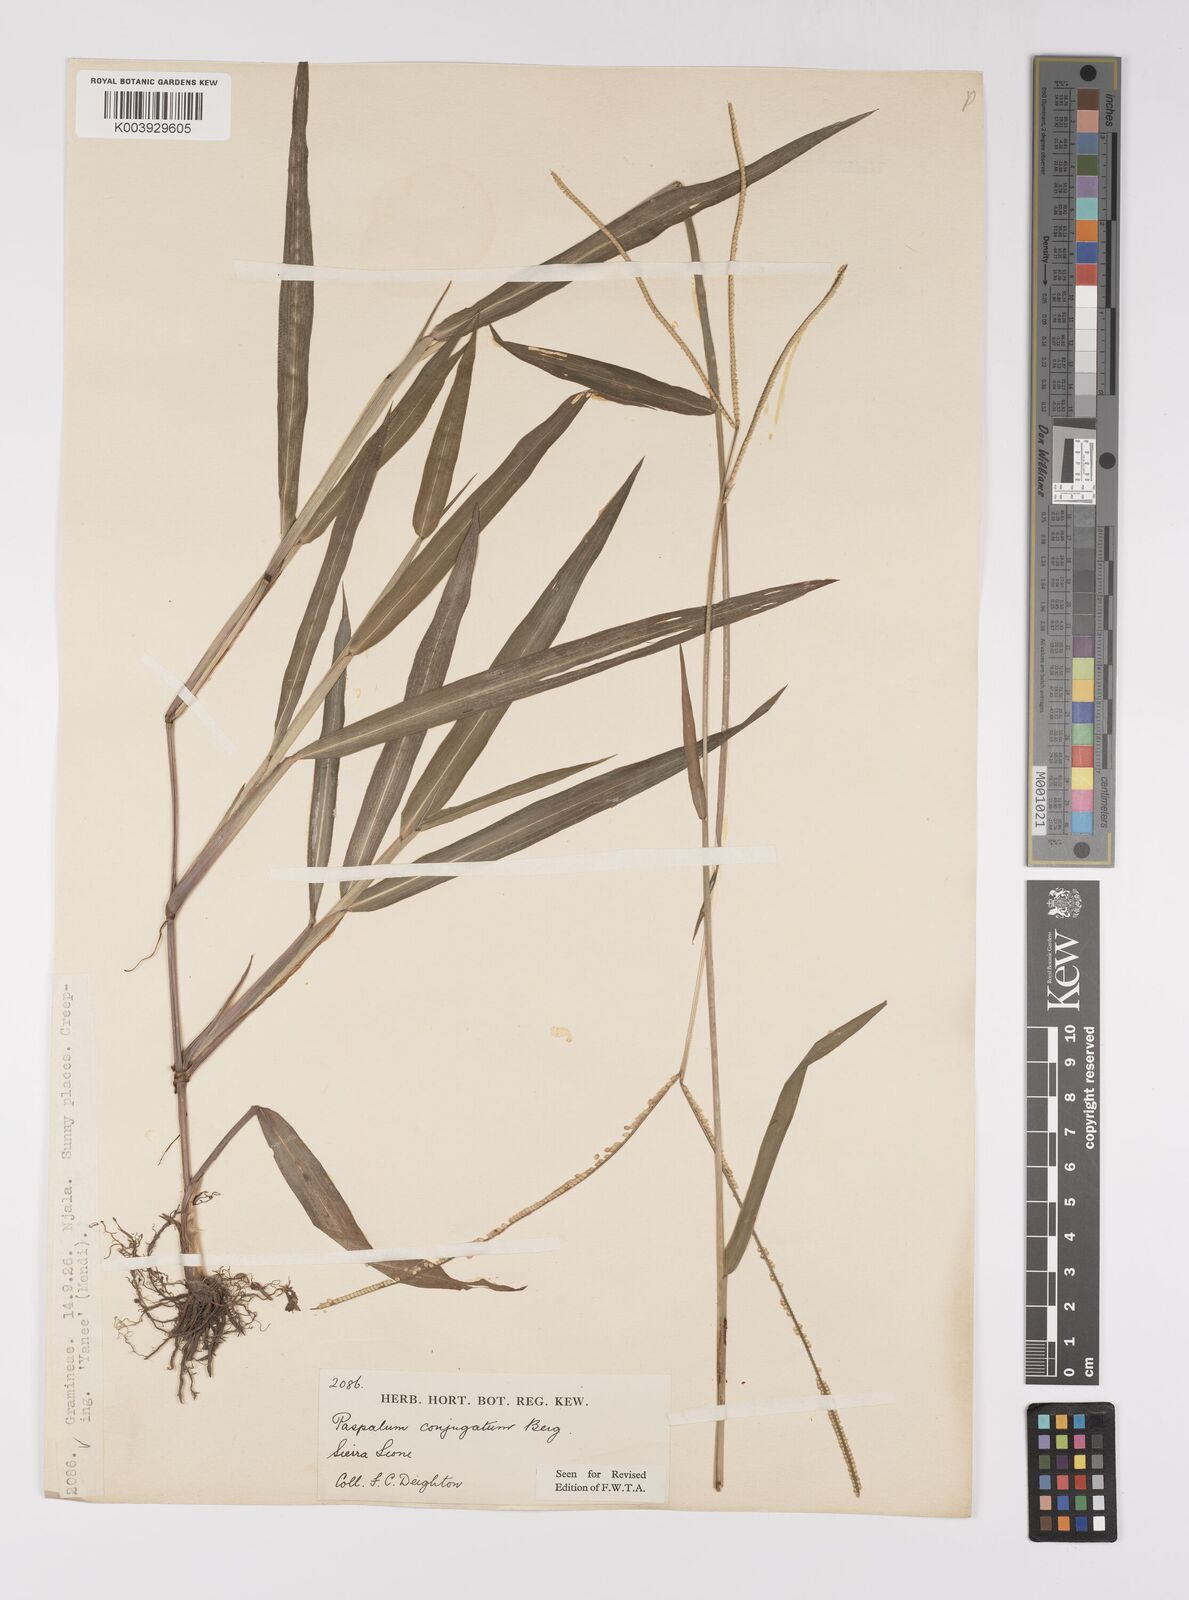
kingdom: Plantae
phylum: Tracheophyta
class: Liliopsida
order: Poales
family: Poaceae
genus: Paspalum
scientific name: Paspalum conjugatum
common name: Hilograss
